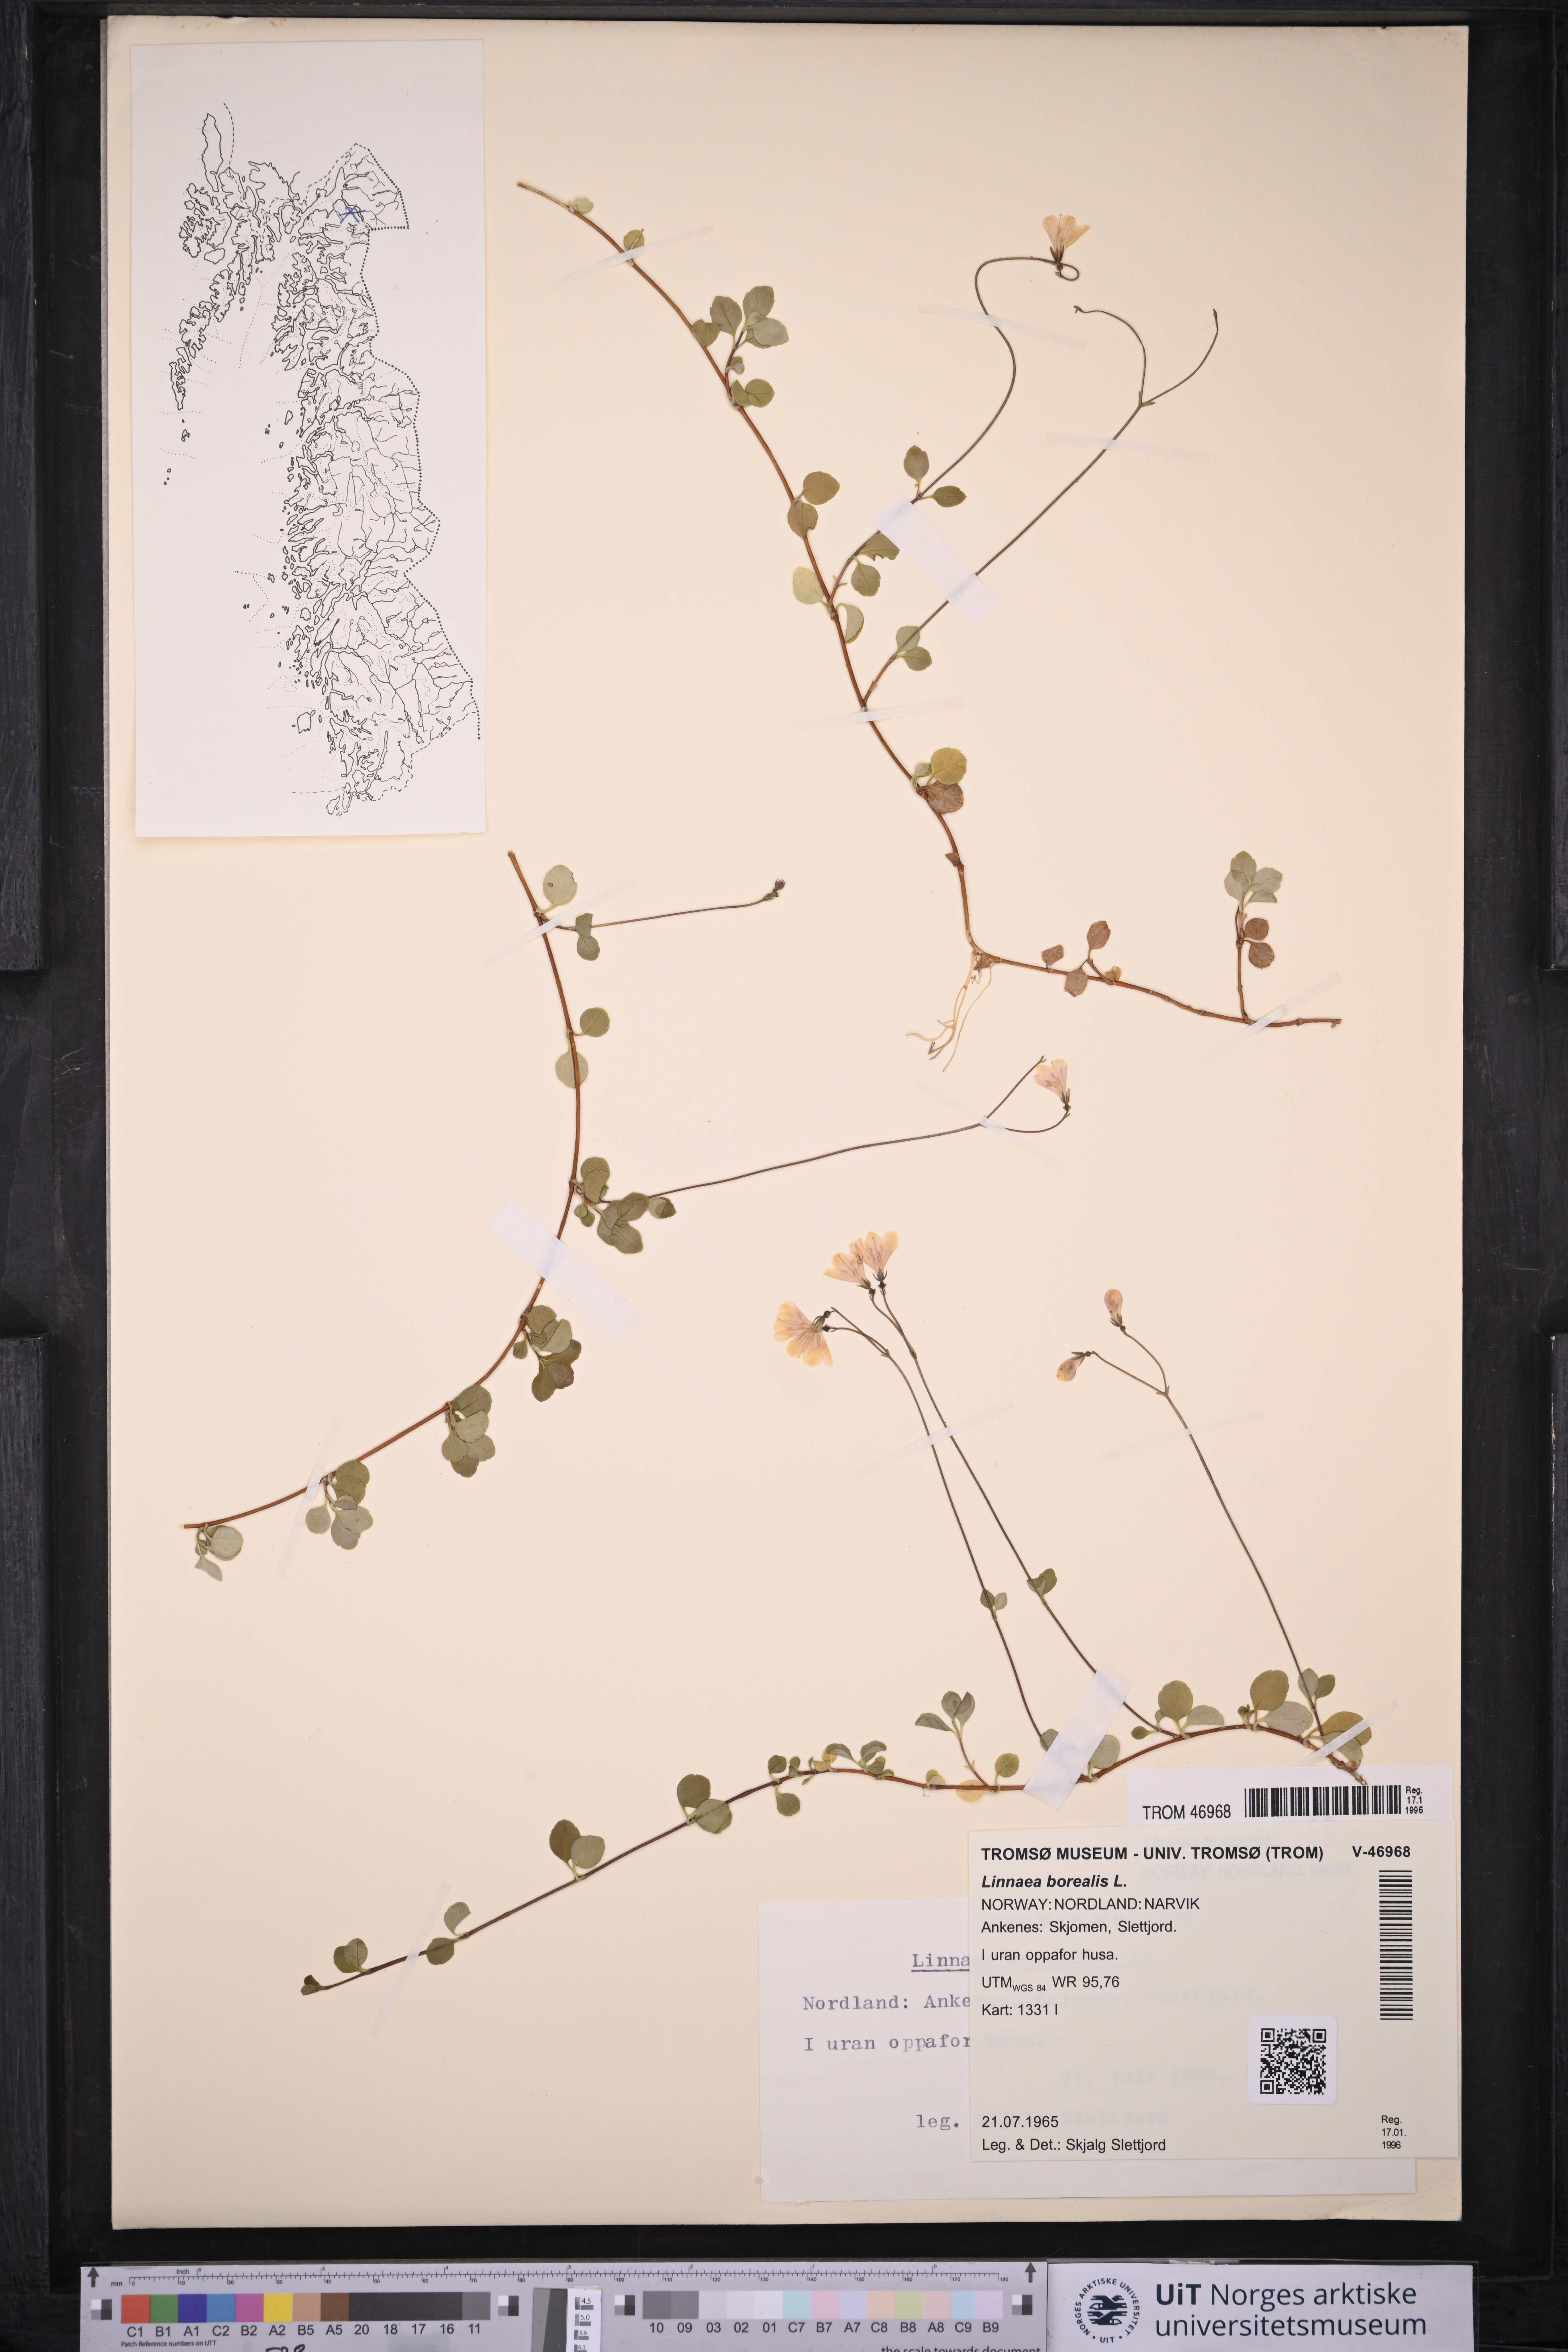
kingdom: Plantae
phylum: Tracheophyta
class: Magnoliopsida
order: Dipsacales
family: Caprifoliaceae
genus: Linnaea
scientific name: Linnaea borealis
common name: Twinflower
